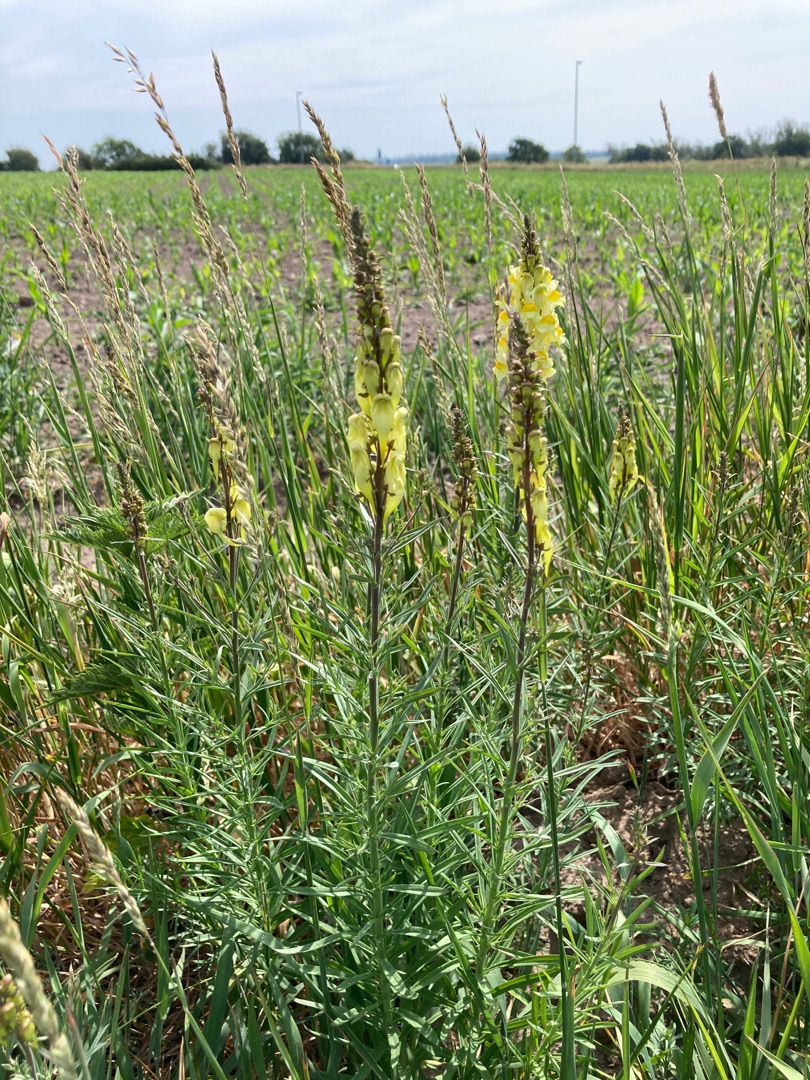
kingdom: Plantae
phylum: Tracheophyta
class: Magnoliopsida
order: Lamiales
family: Plantaginaceae
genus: Linaria
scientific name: Linaria vulgaris
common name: Almindelig torskemund
